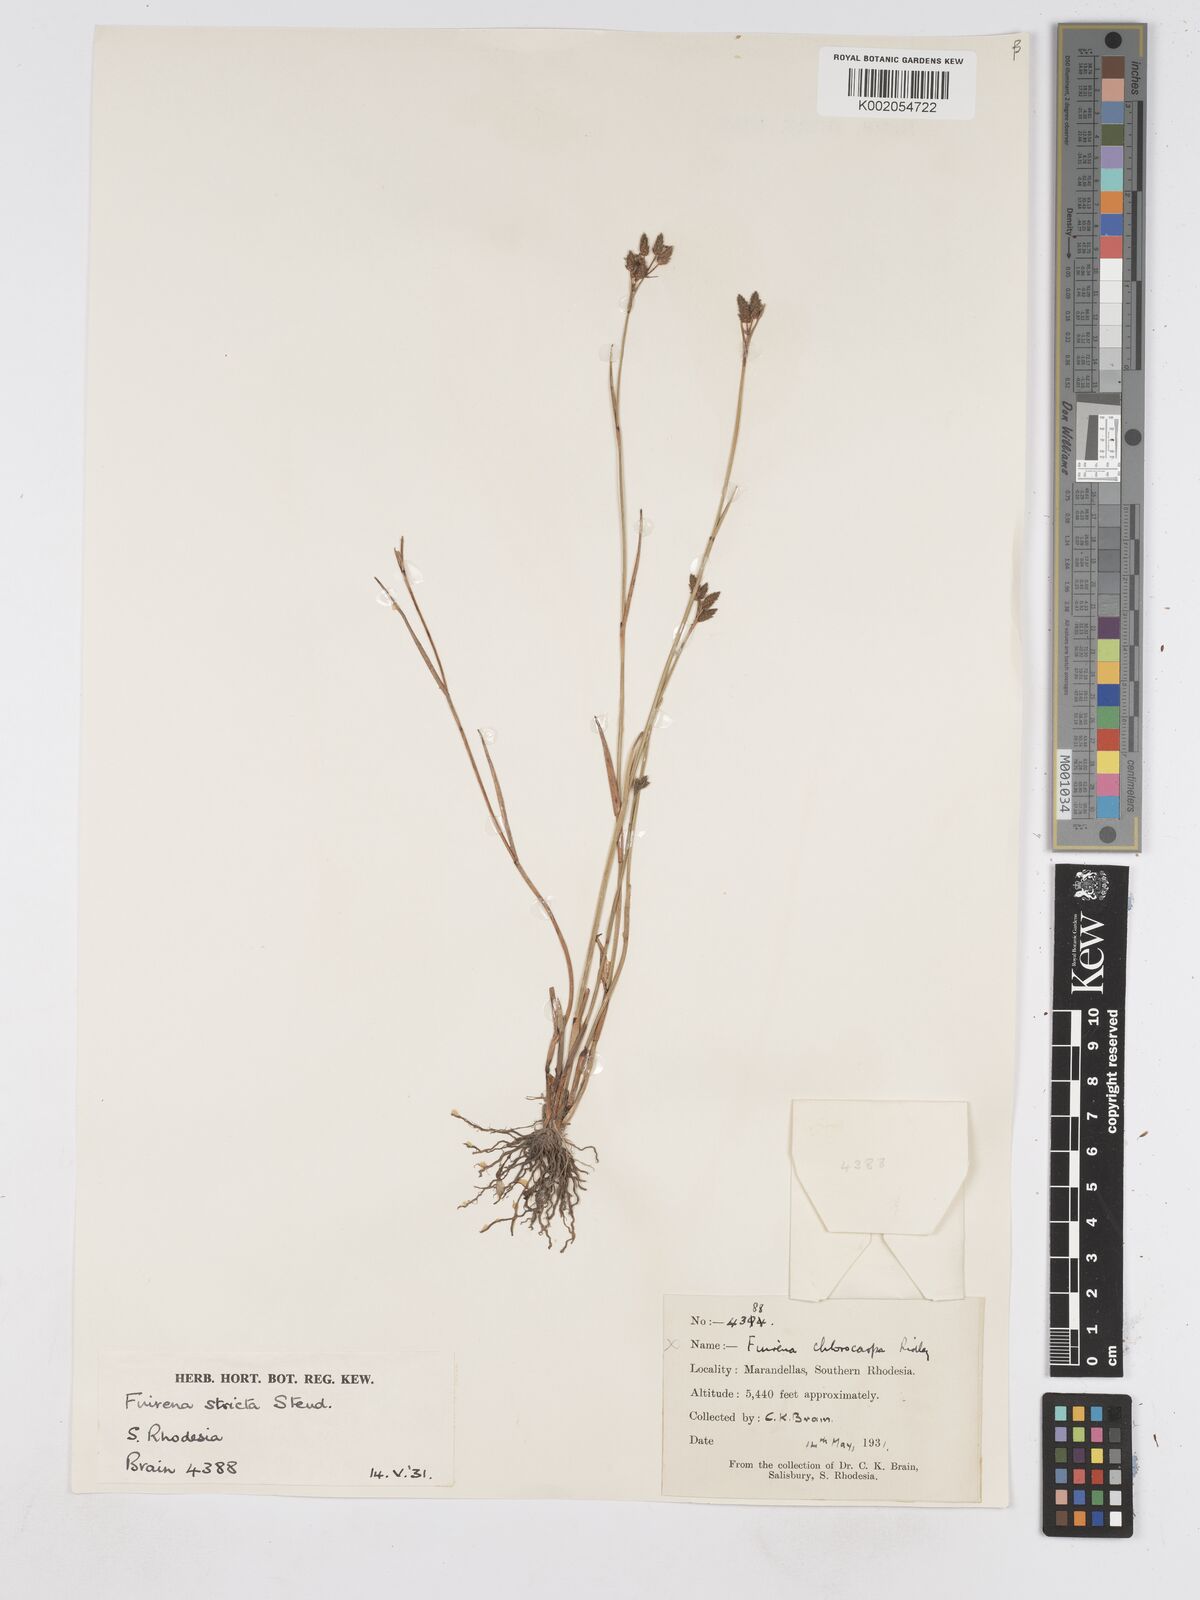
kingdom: Plantae
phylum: Tracheophyta
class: Liliopsida
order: Poales
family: Cyperaceae
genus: Fuirena
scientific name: Fuirena stricta
